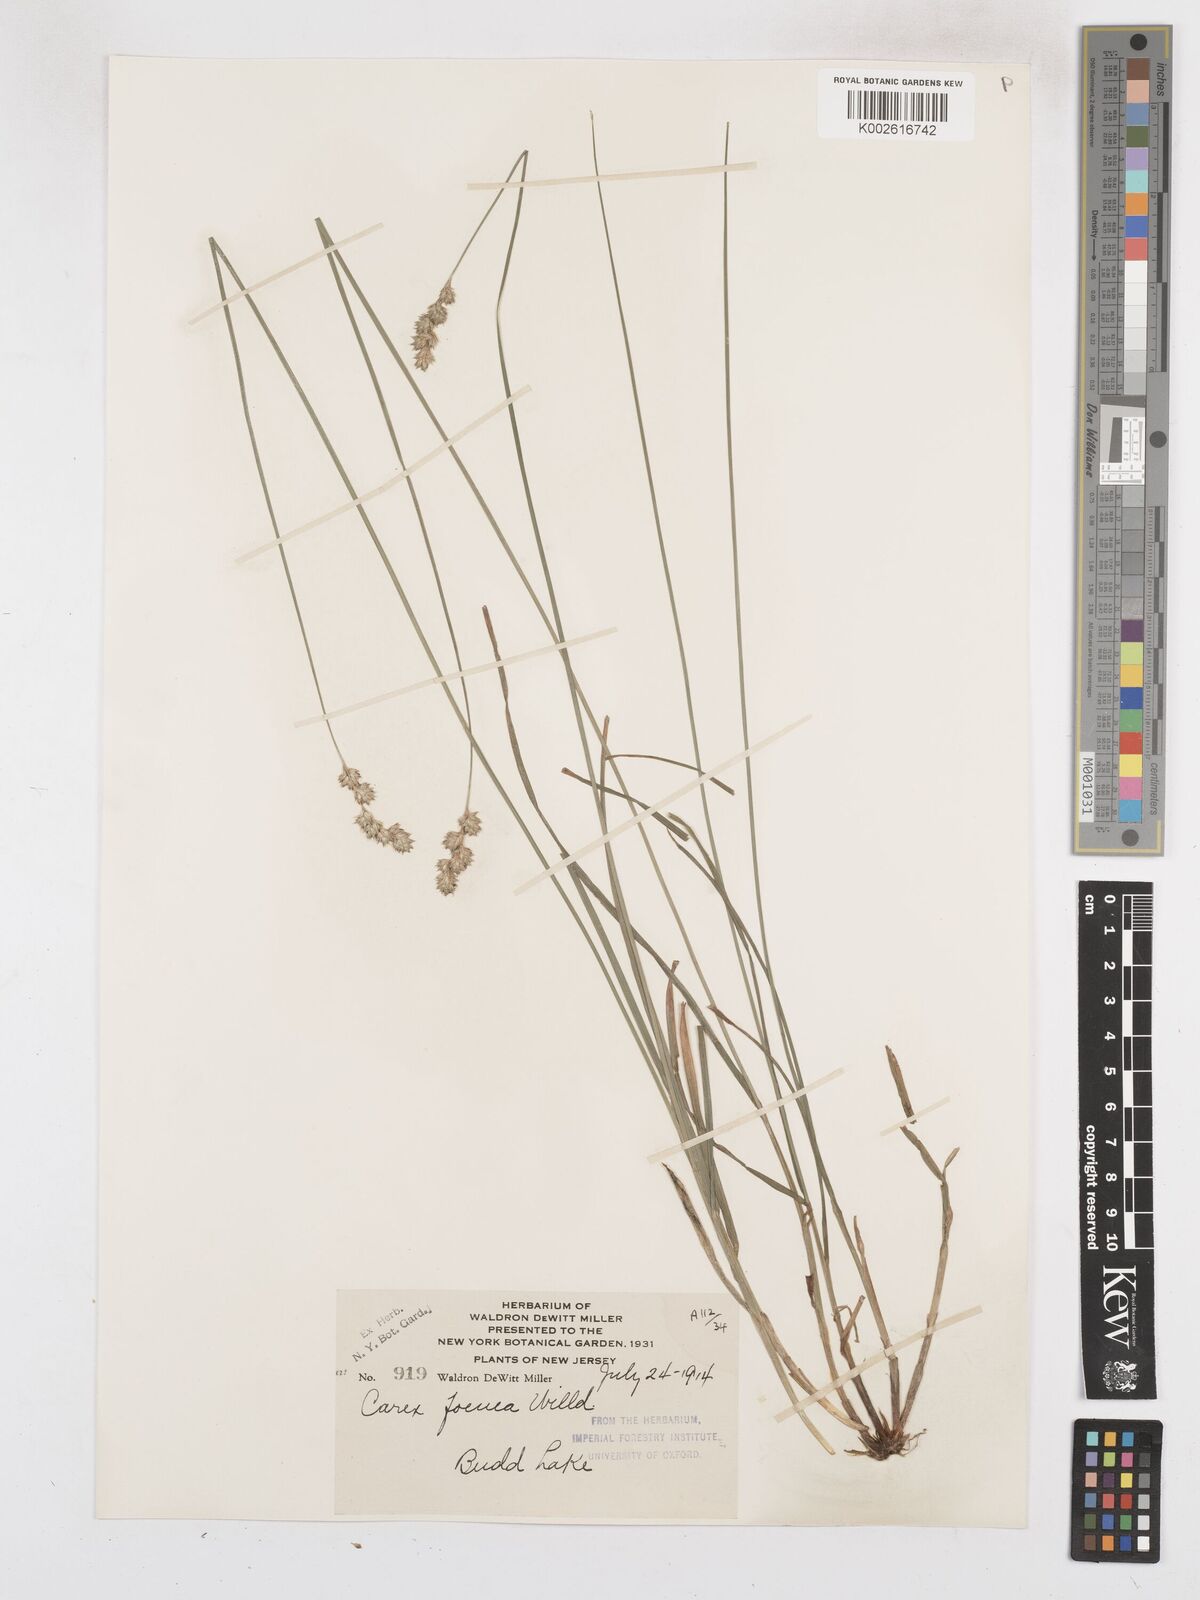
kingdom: Plantae
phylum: Tracheophyta
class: Liliopsida
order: Poales
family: Cyperaceae
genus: Carex
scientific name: Carex argyrantha
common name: Silvery-flowered sedge
